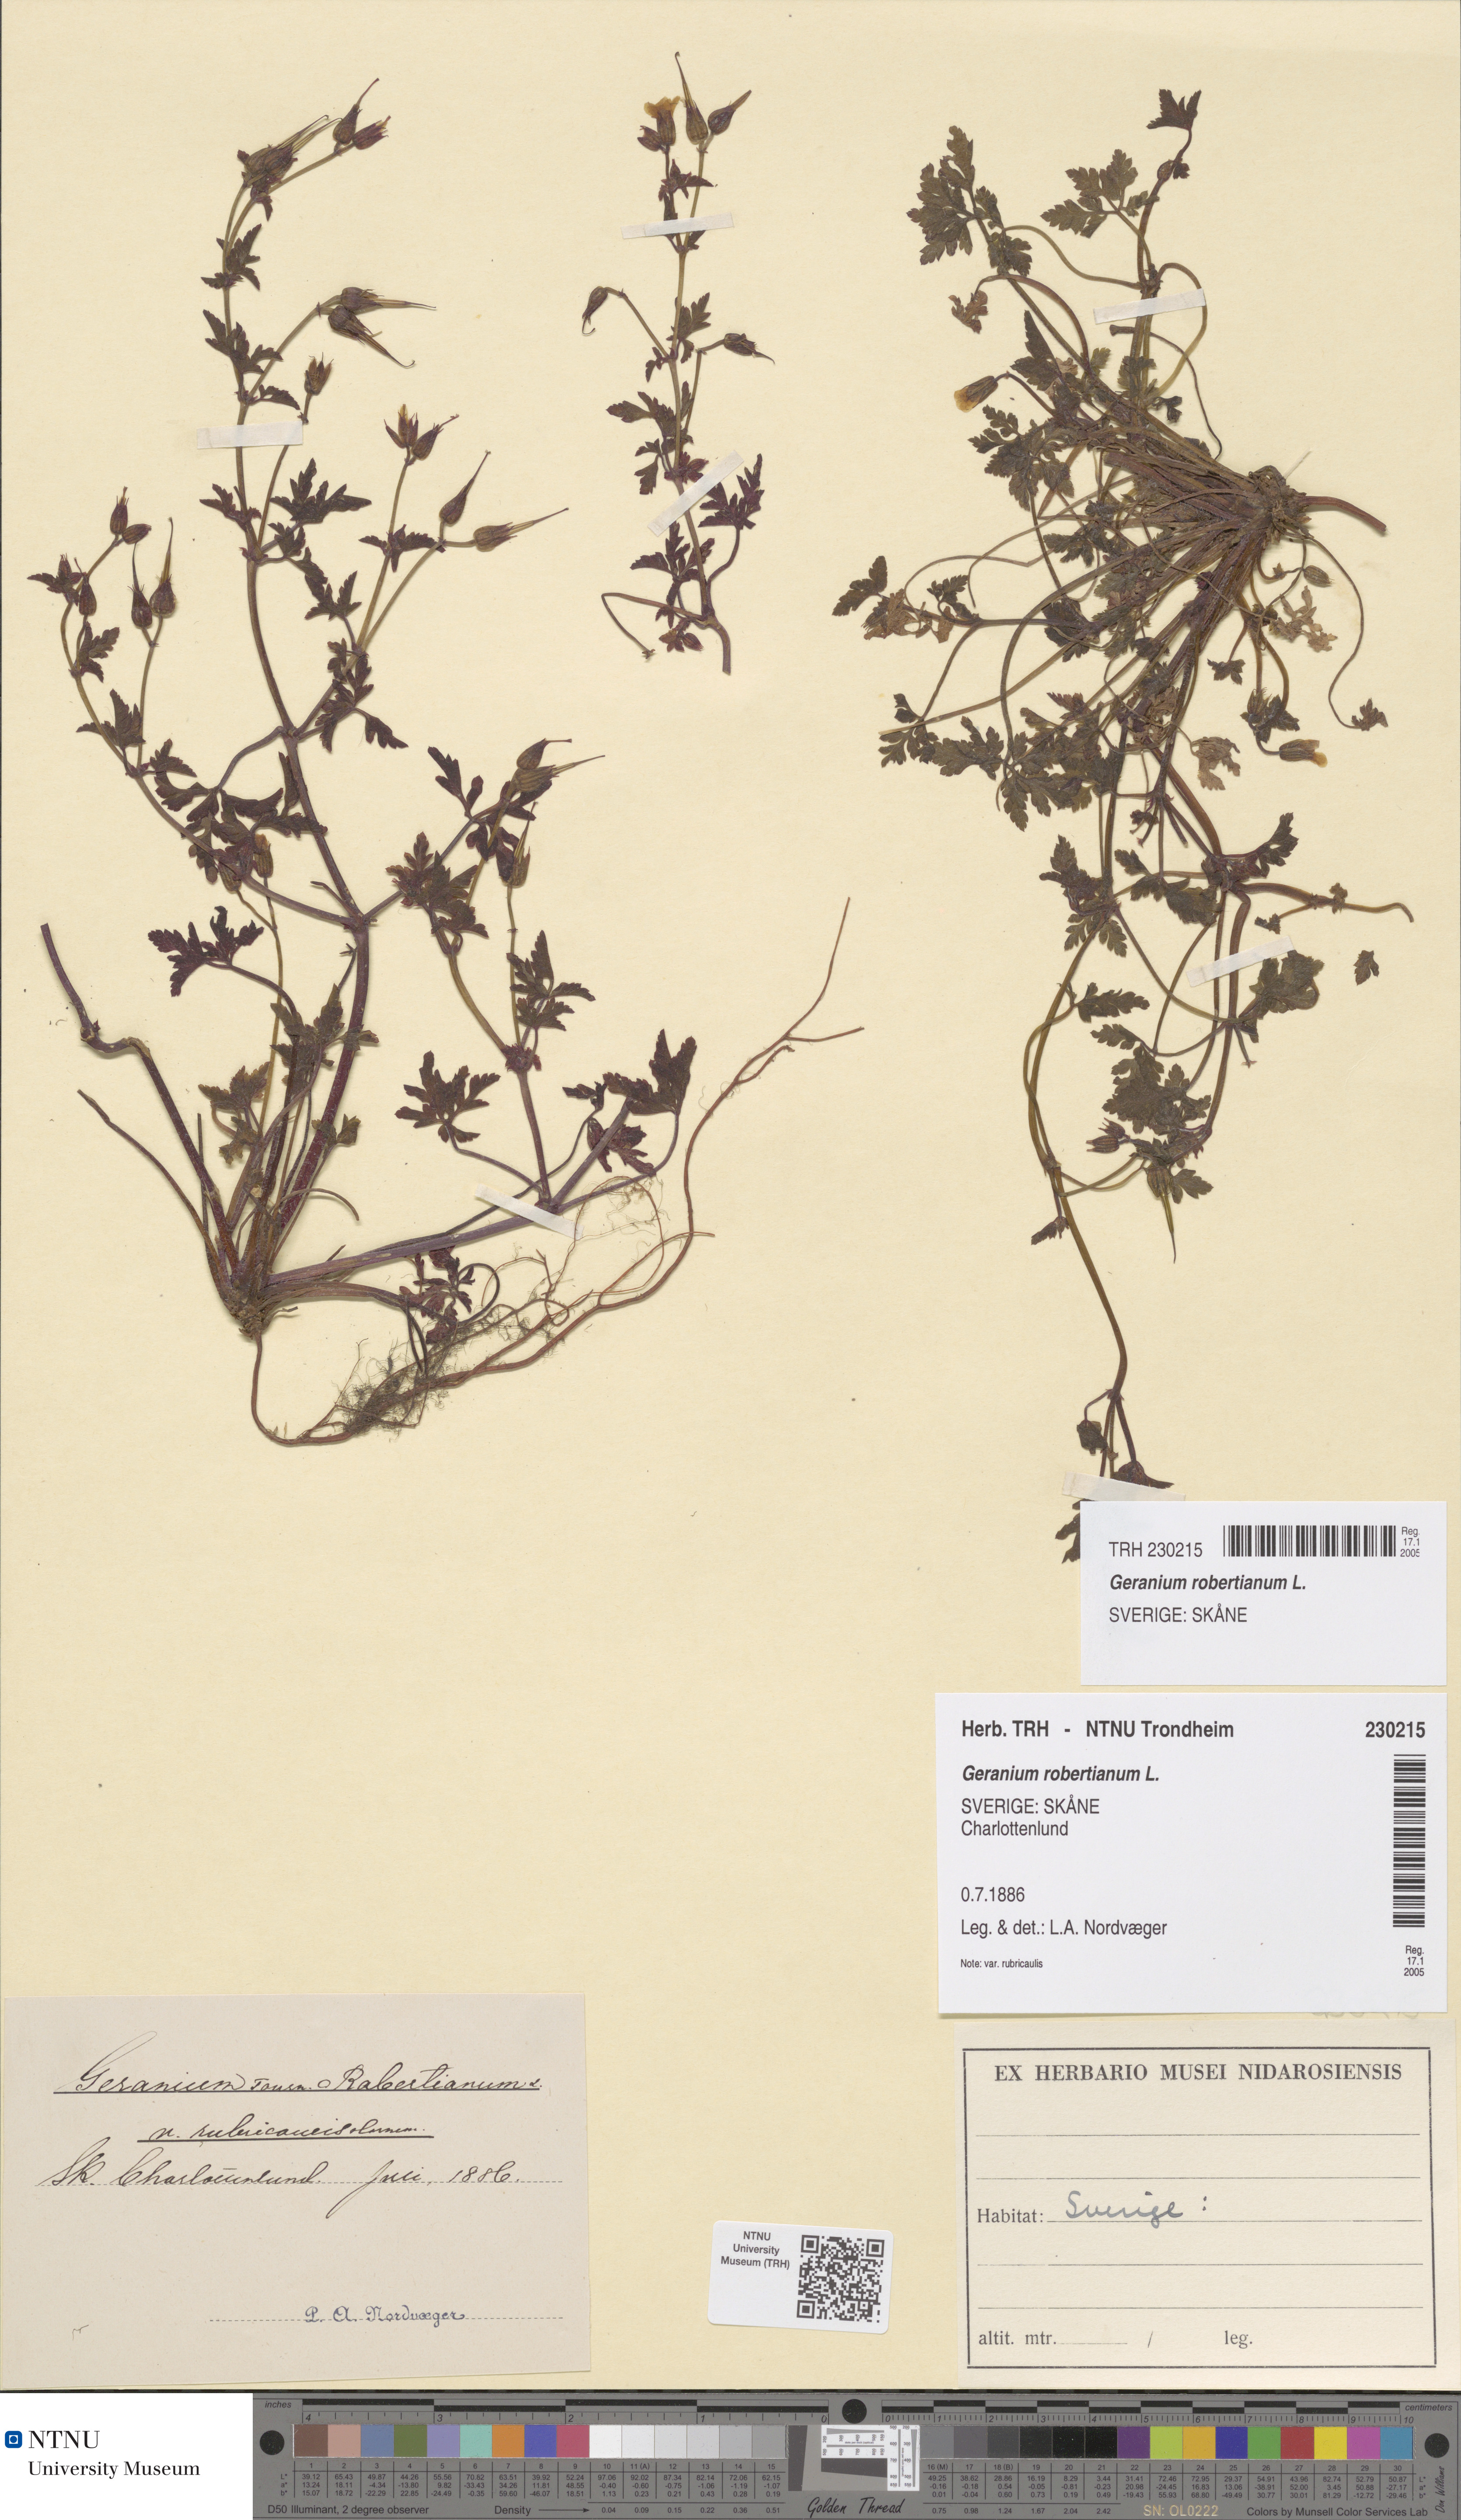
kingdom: Plantae
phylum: Tracheophyta
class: Magnoliopsida
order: Geraniales
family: Geraniaceae
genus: Geranium
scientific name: Geranium robertianum
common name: Herb-robert
